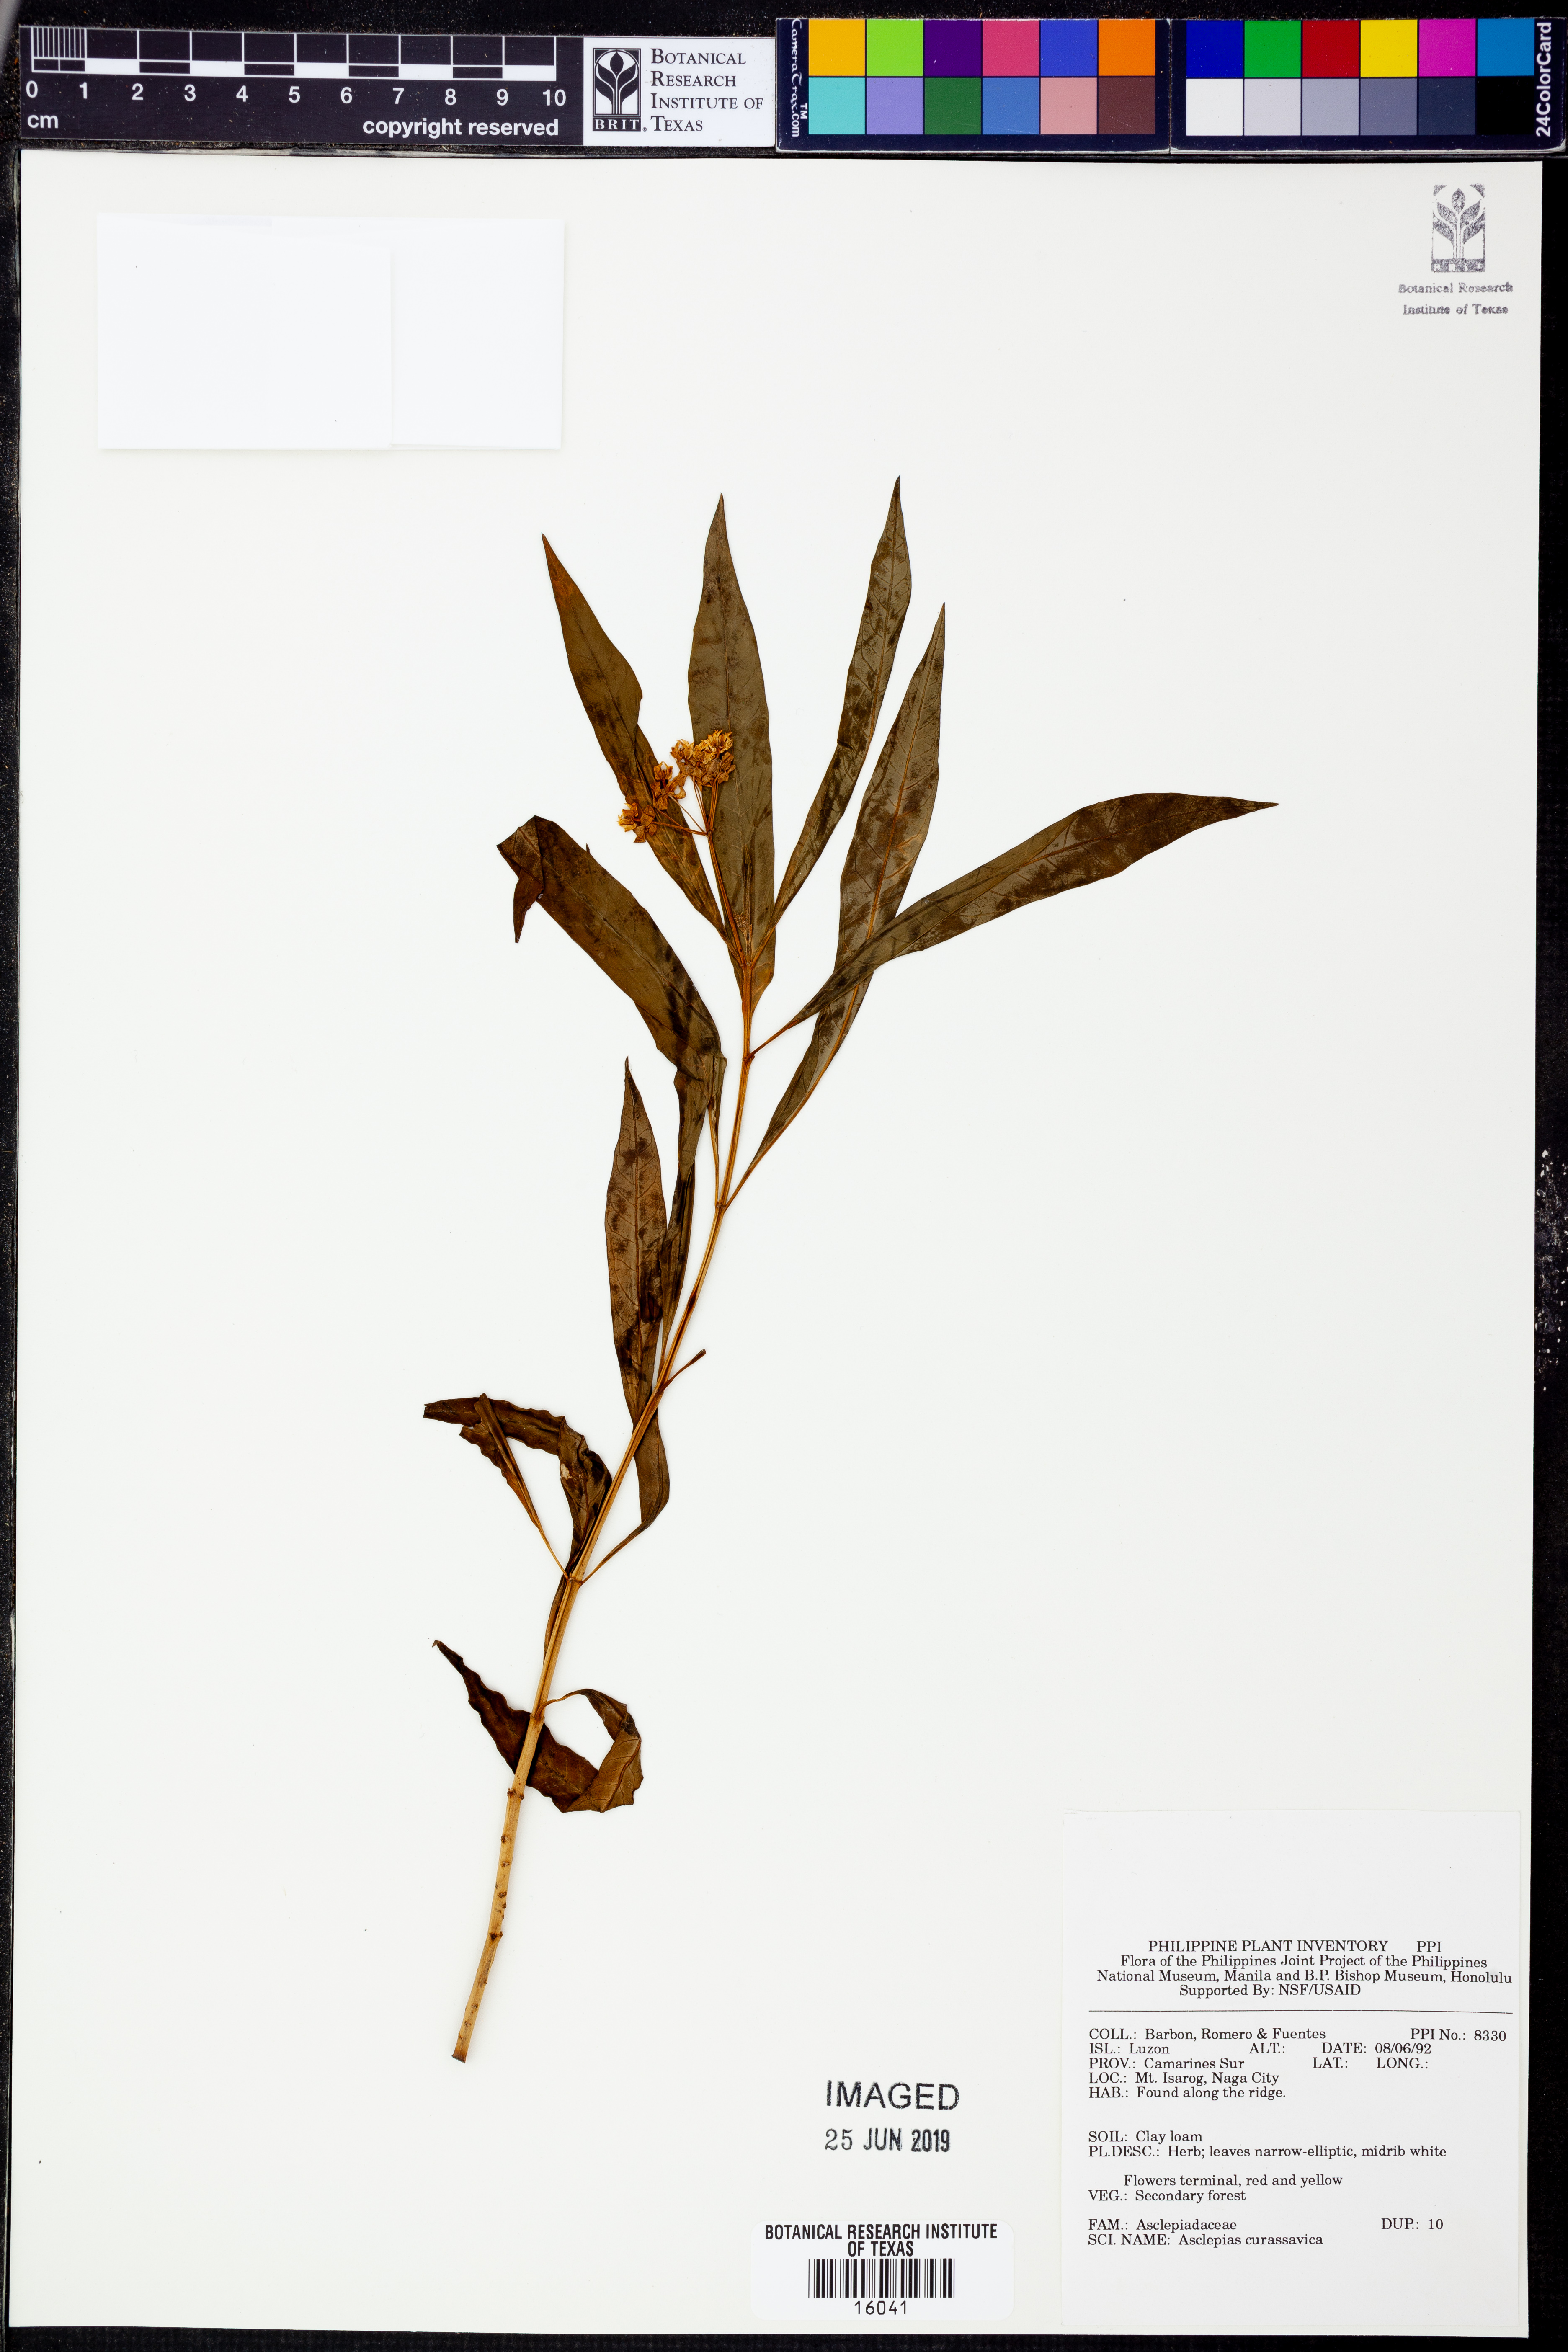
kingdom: Plantae
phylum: Tracheophyta
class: Magnoliopsida
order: Gentianales
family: Apocynaceae
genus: Asclepias
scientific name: Asclepias curassavica
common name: Bloodflower
